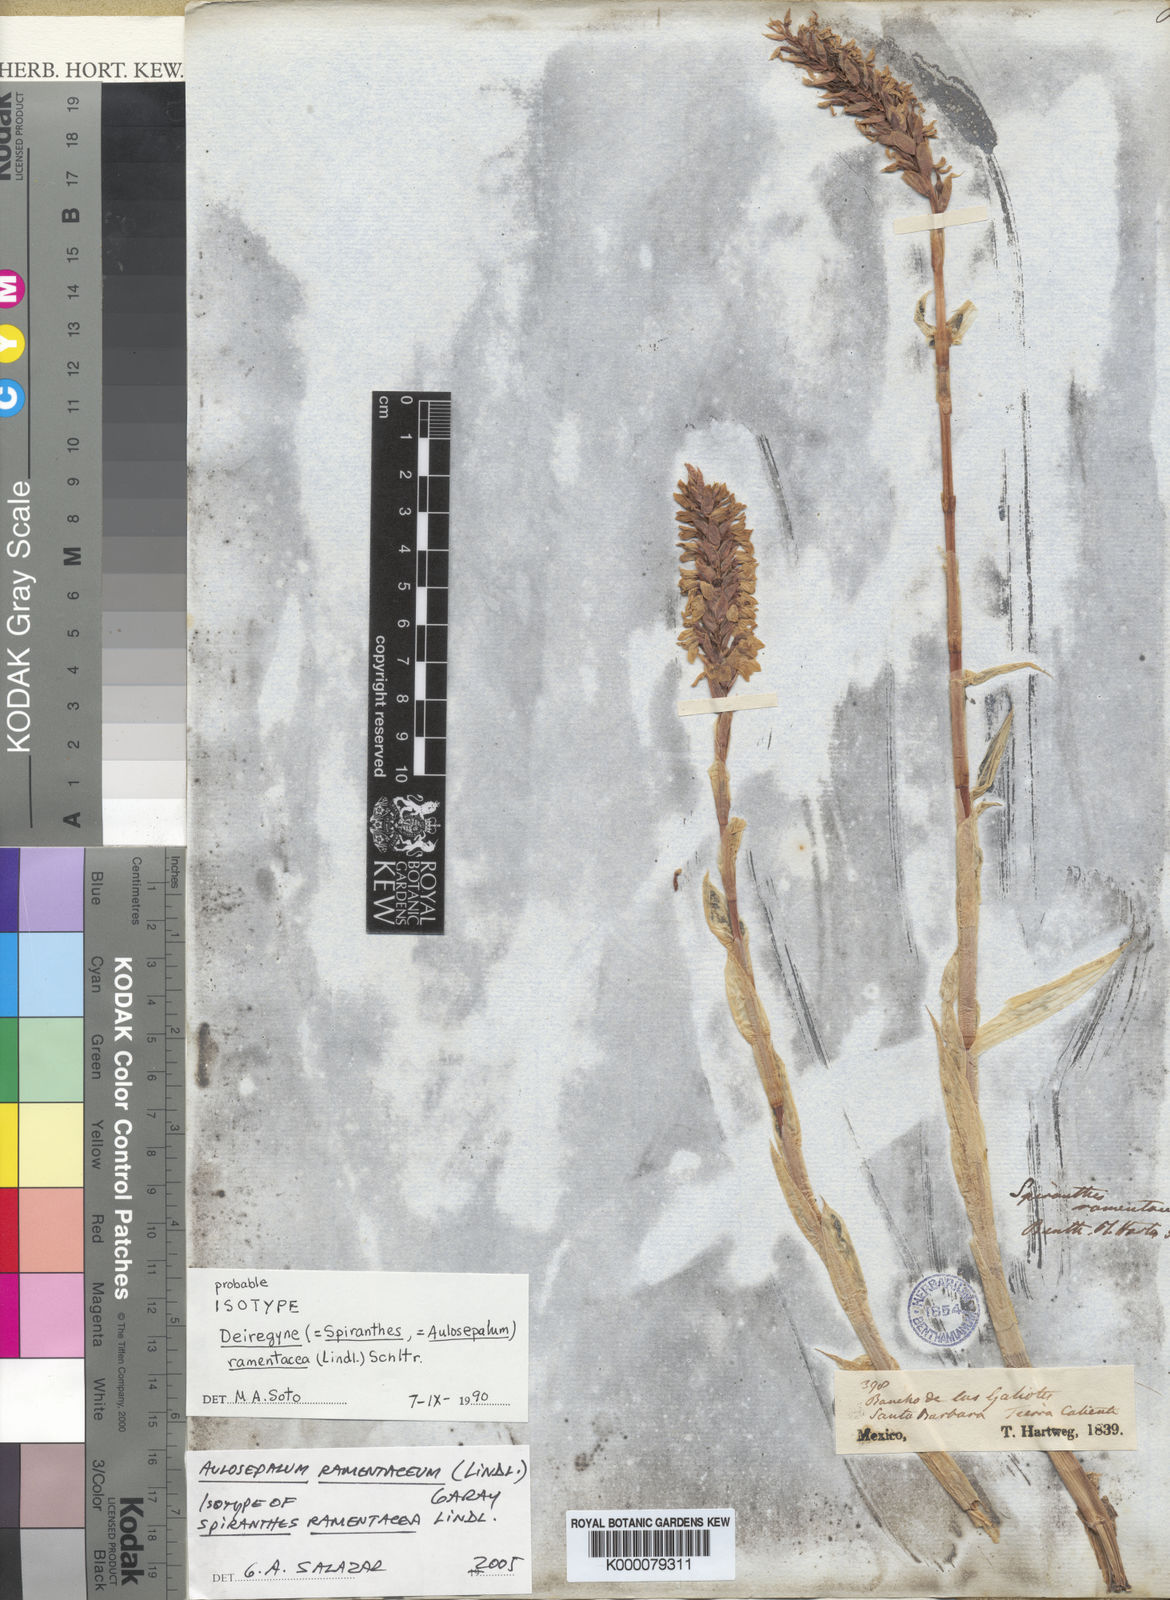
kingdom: Plantae
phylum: Tracheophyta
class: Liliopsida
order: Asparagales
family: Orchidaceae
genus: Aulosepalum
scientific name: Aulosepalum ramentaceum
